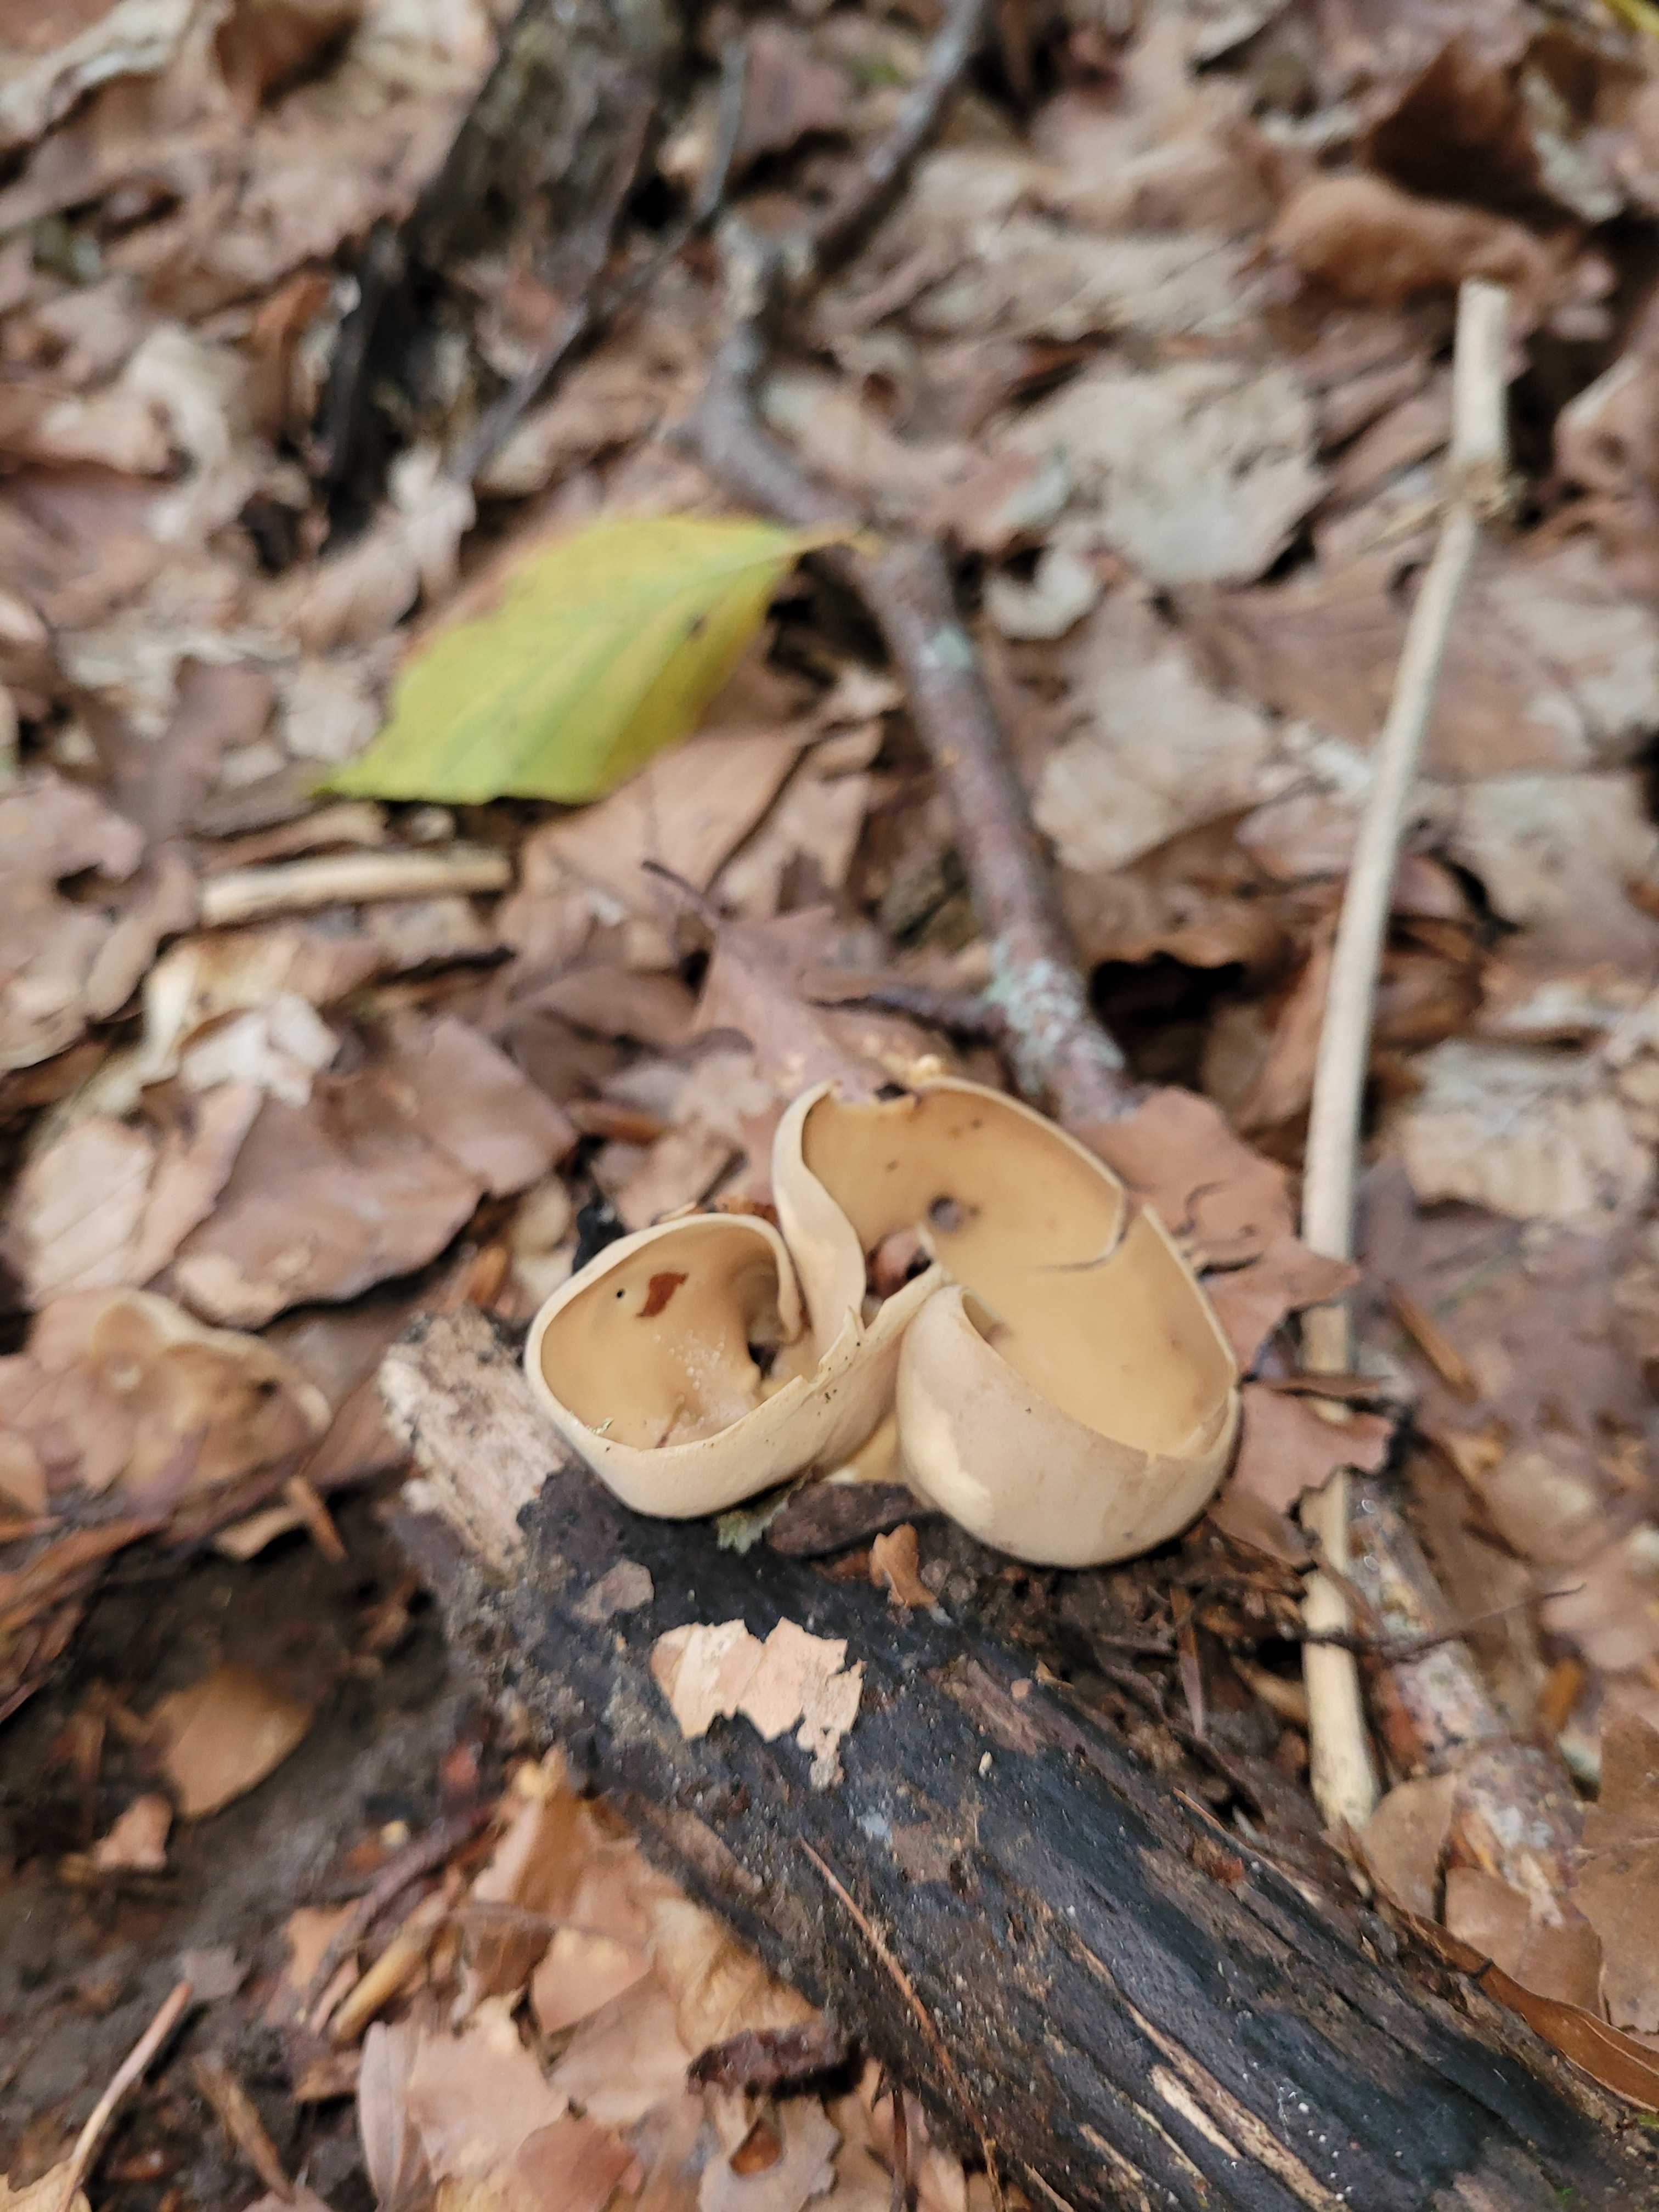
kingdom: Fungi
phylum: Ascomycota
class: Pezizomycetes
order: Pezizales
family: Otideaceae
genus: Otidea
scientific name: Otidea alutacea
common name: læder-ørebæger
